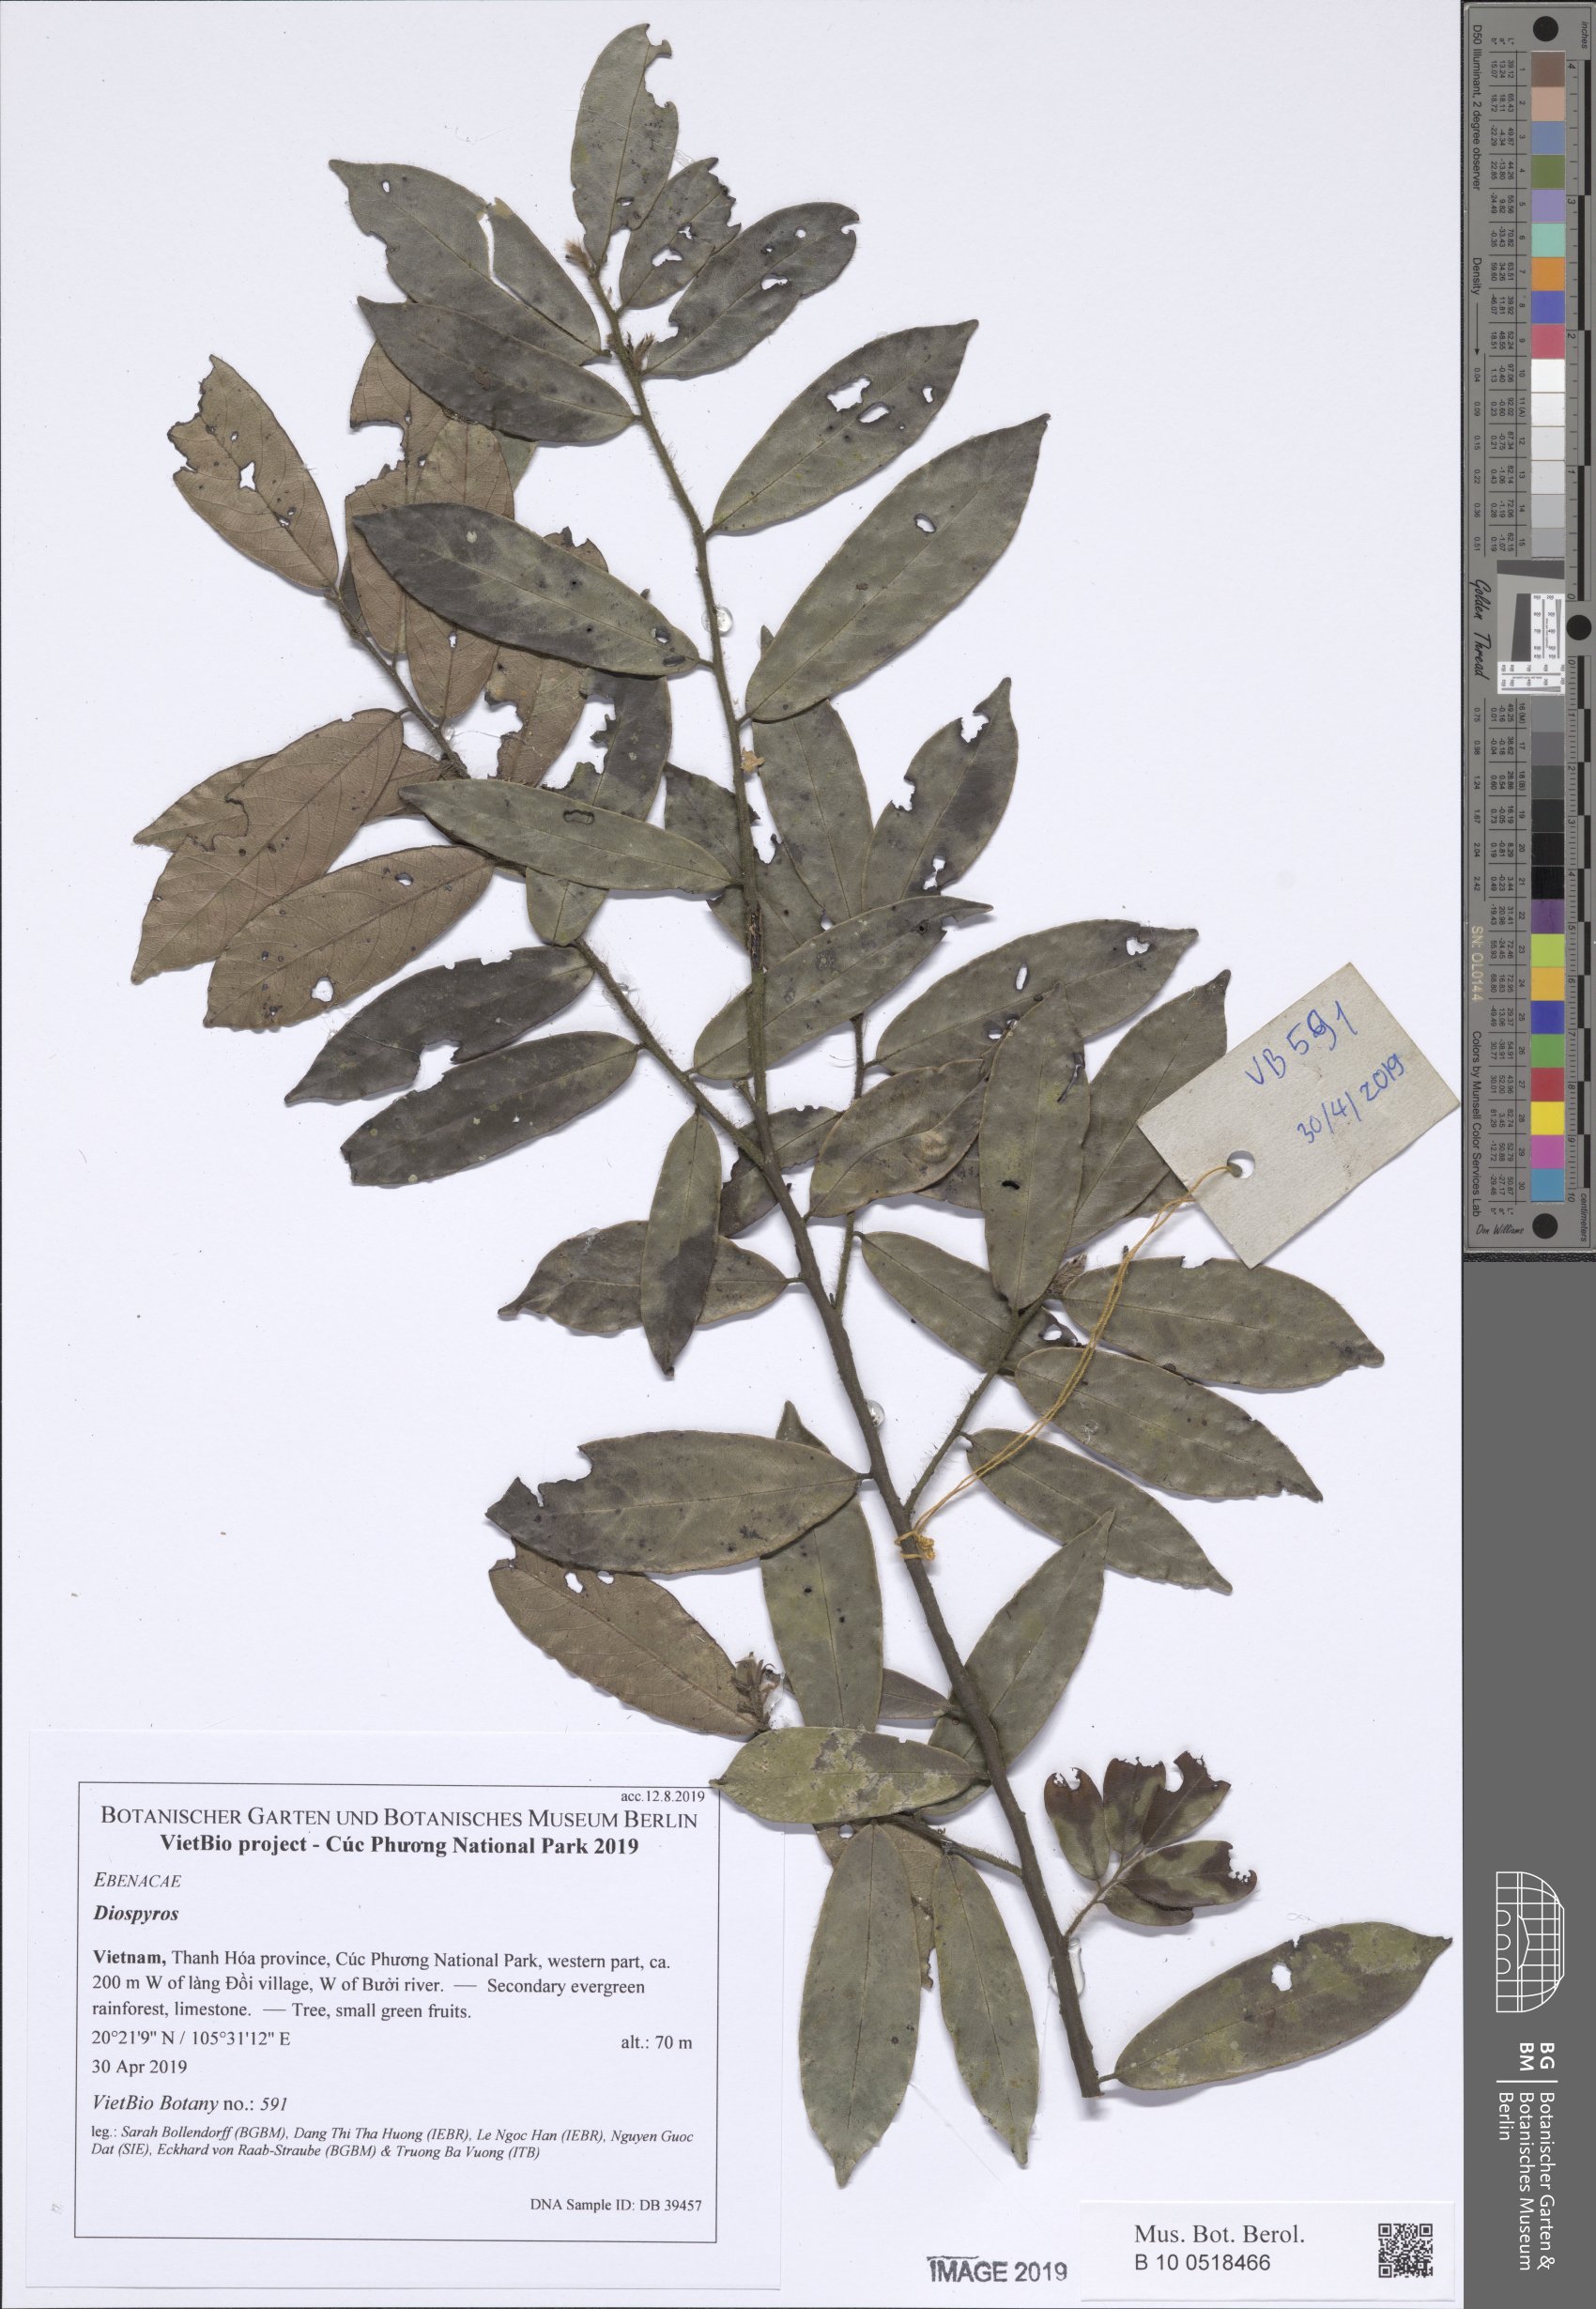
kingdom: Plantae
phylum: Tracheophyta
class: Magnoliopsida
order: Ericales
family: Ebenaceae
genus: Diospyros
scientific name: Diospyros buxifolia
